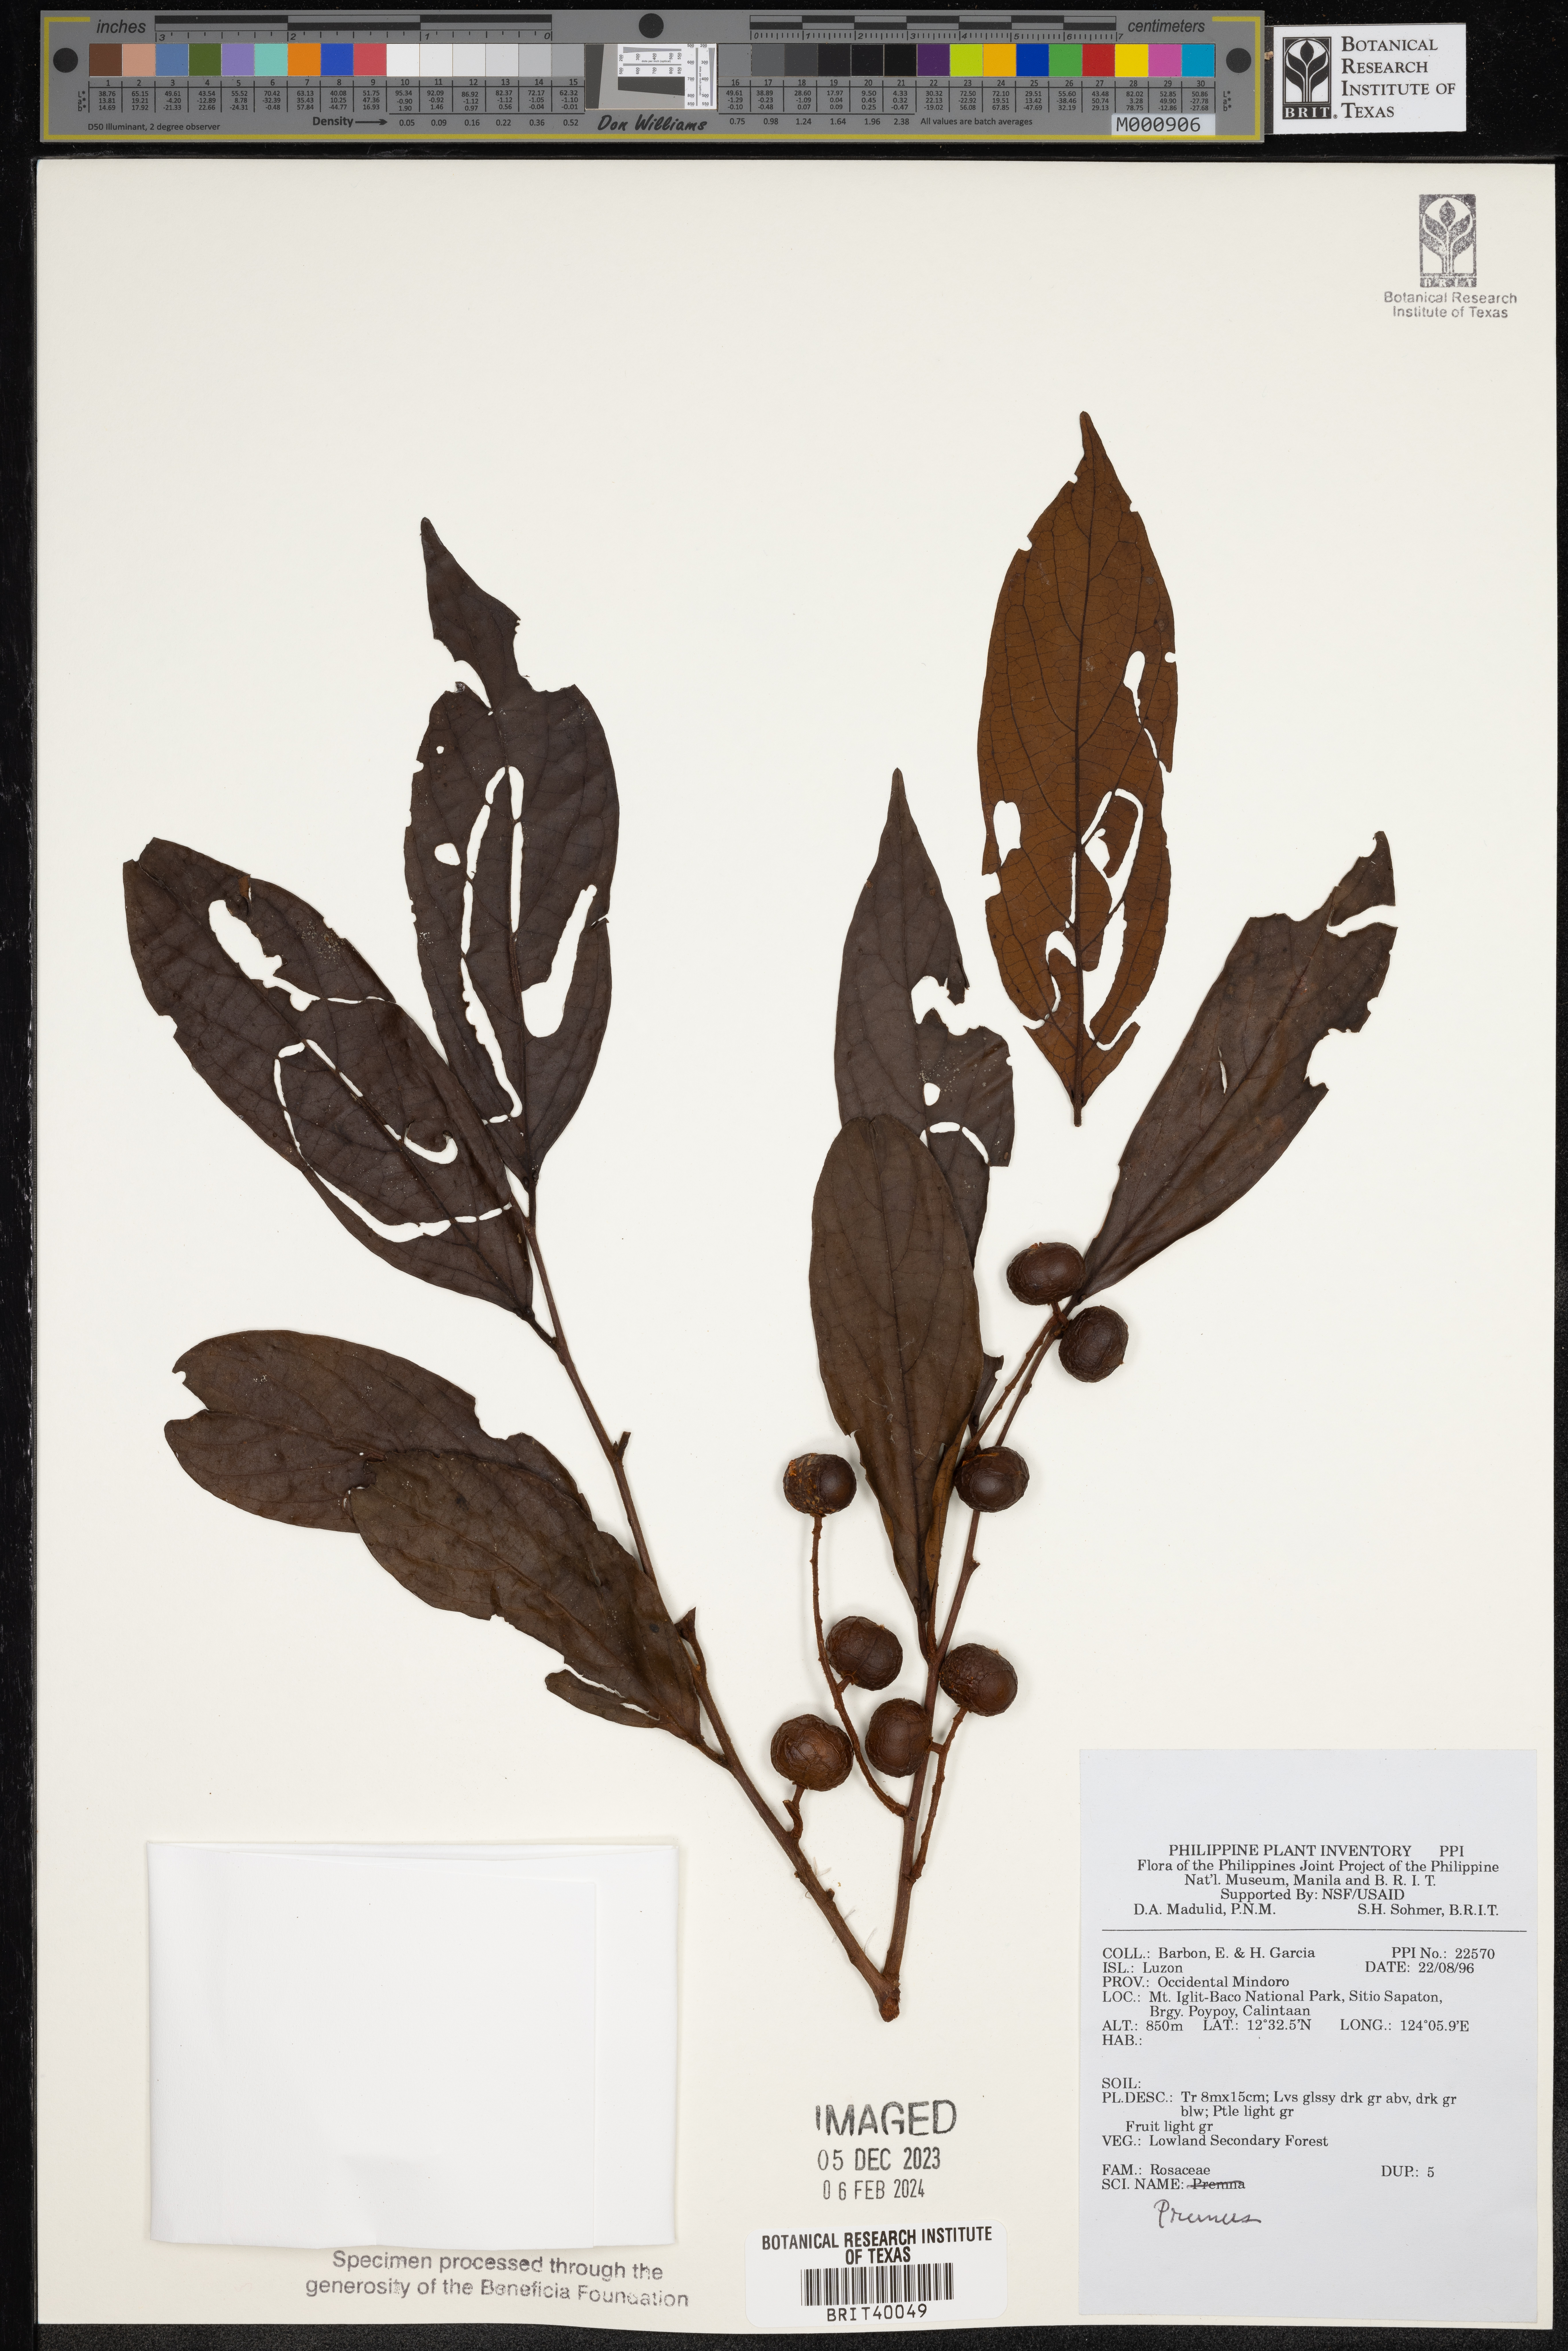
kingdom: Plantae
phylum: Tracheophyta
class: Magnoliopsida
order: Rosales
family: Rosaceae
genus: Prunus
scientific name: Prunus
